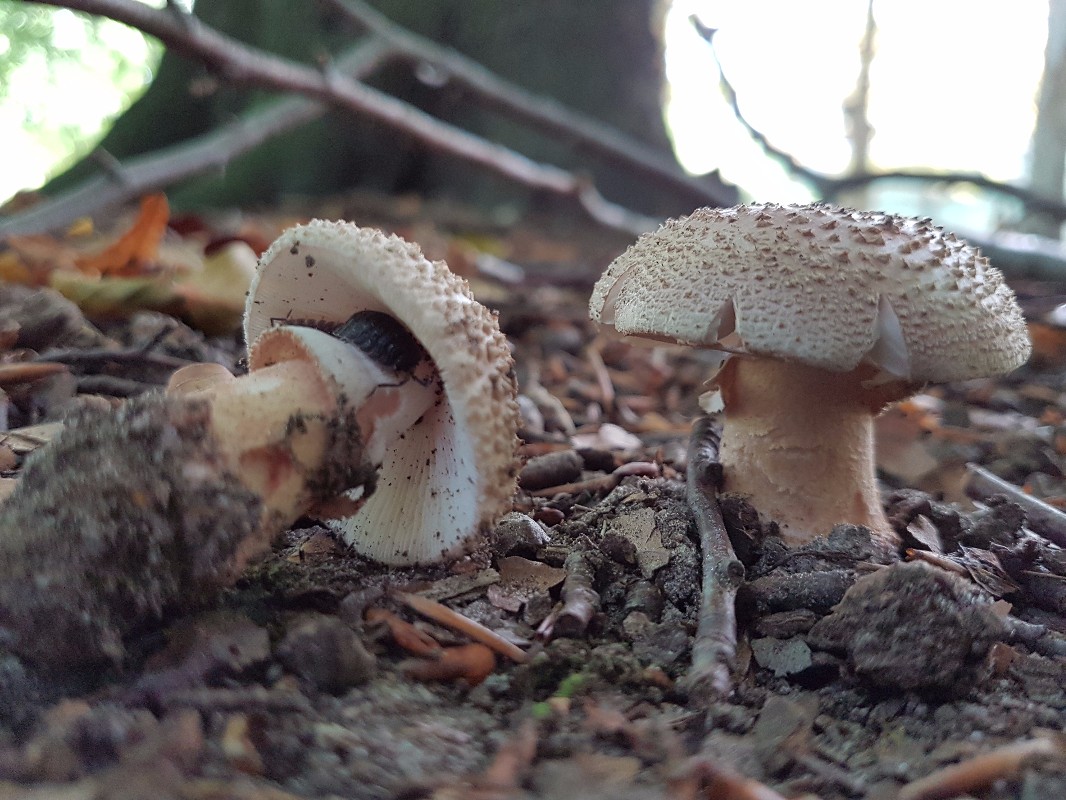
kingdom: Fungi
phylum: Basidiomycota
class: Agaricomycetes
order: Agaricales
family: Amanitaceae
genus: Amanita
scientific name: Amanita rubescens
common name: rødmende fluesvamp
